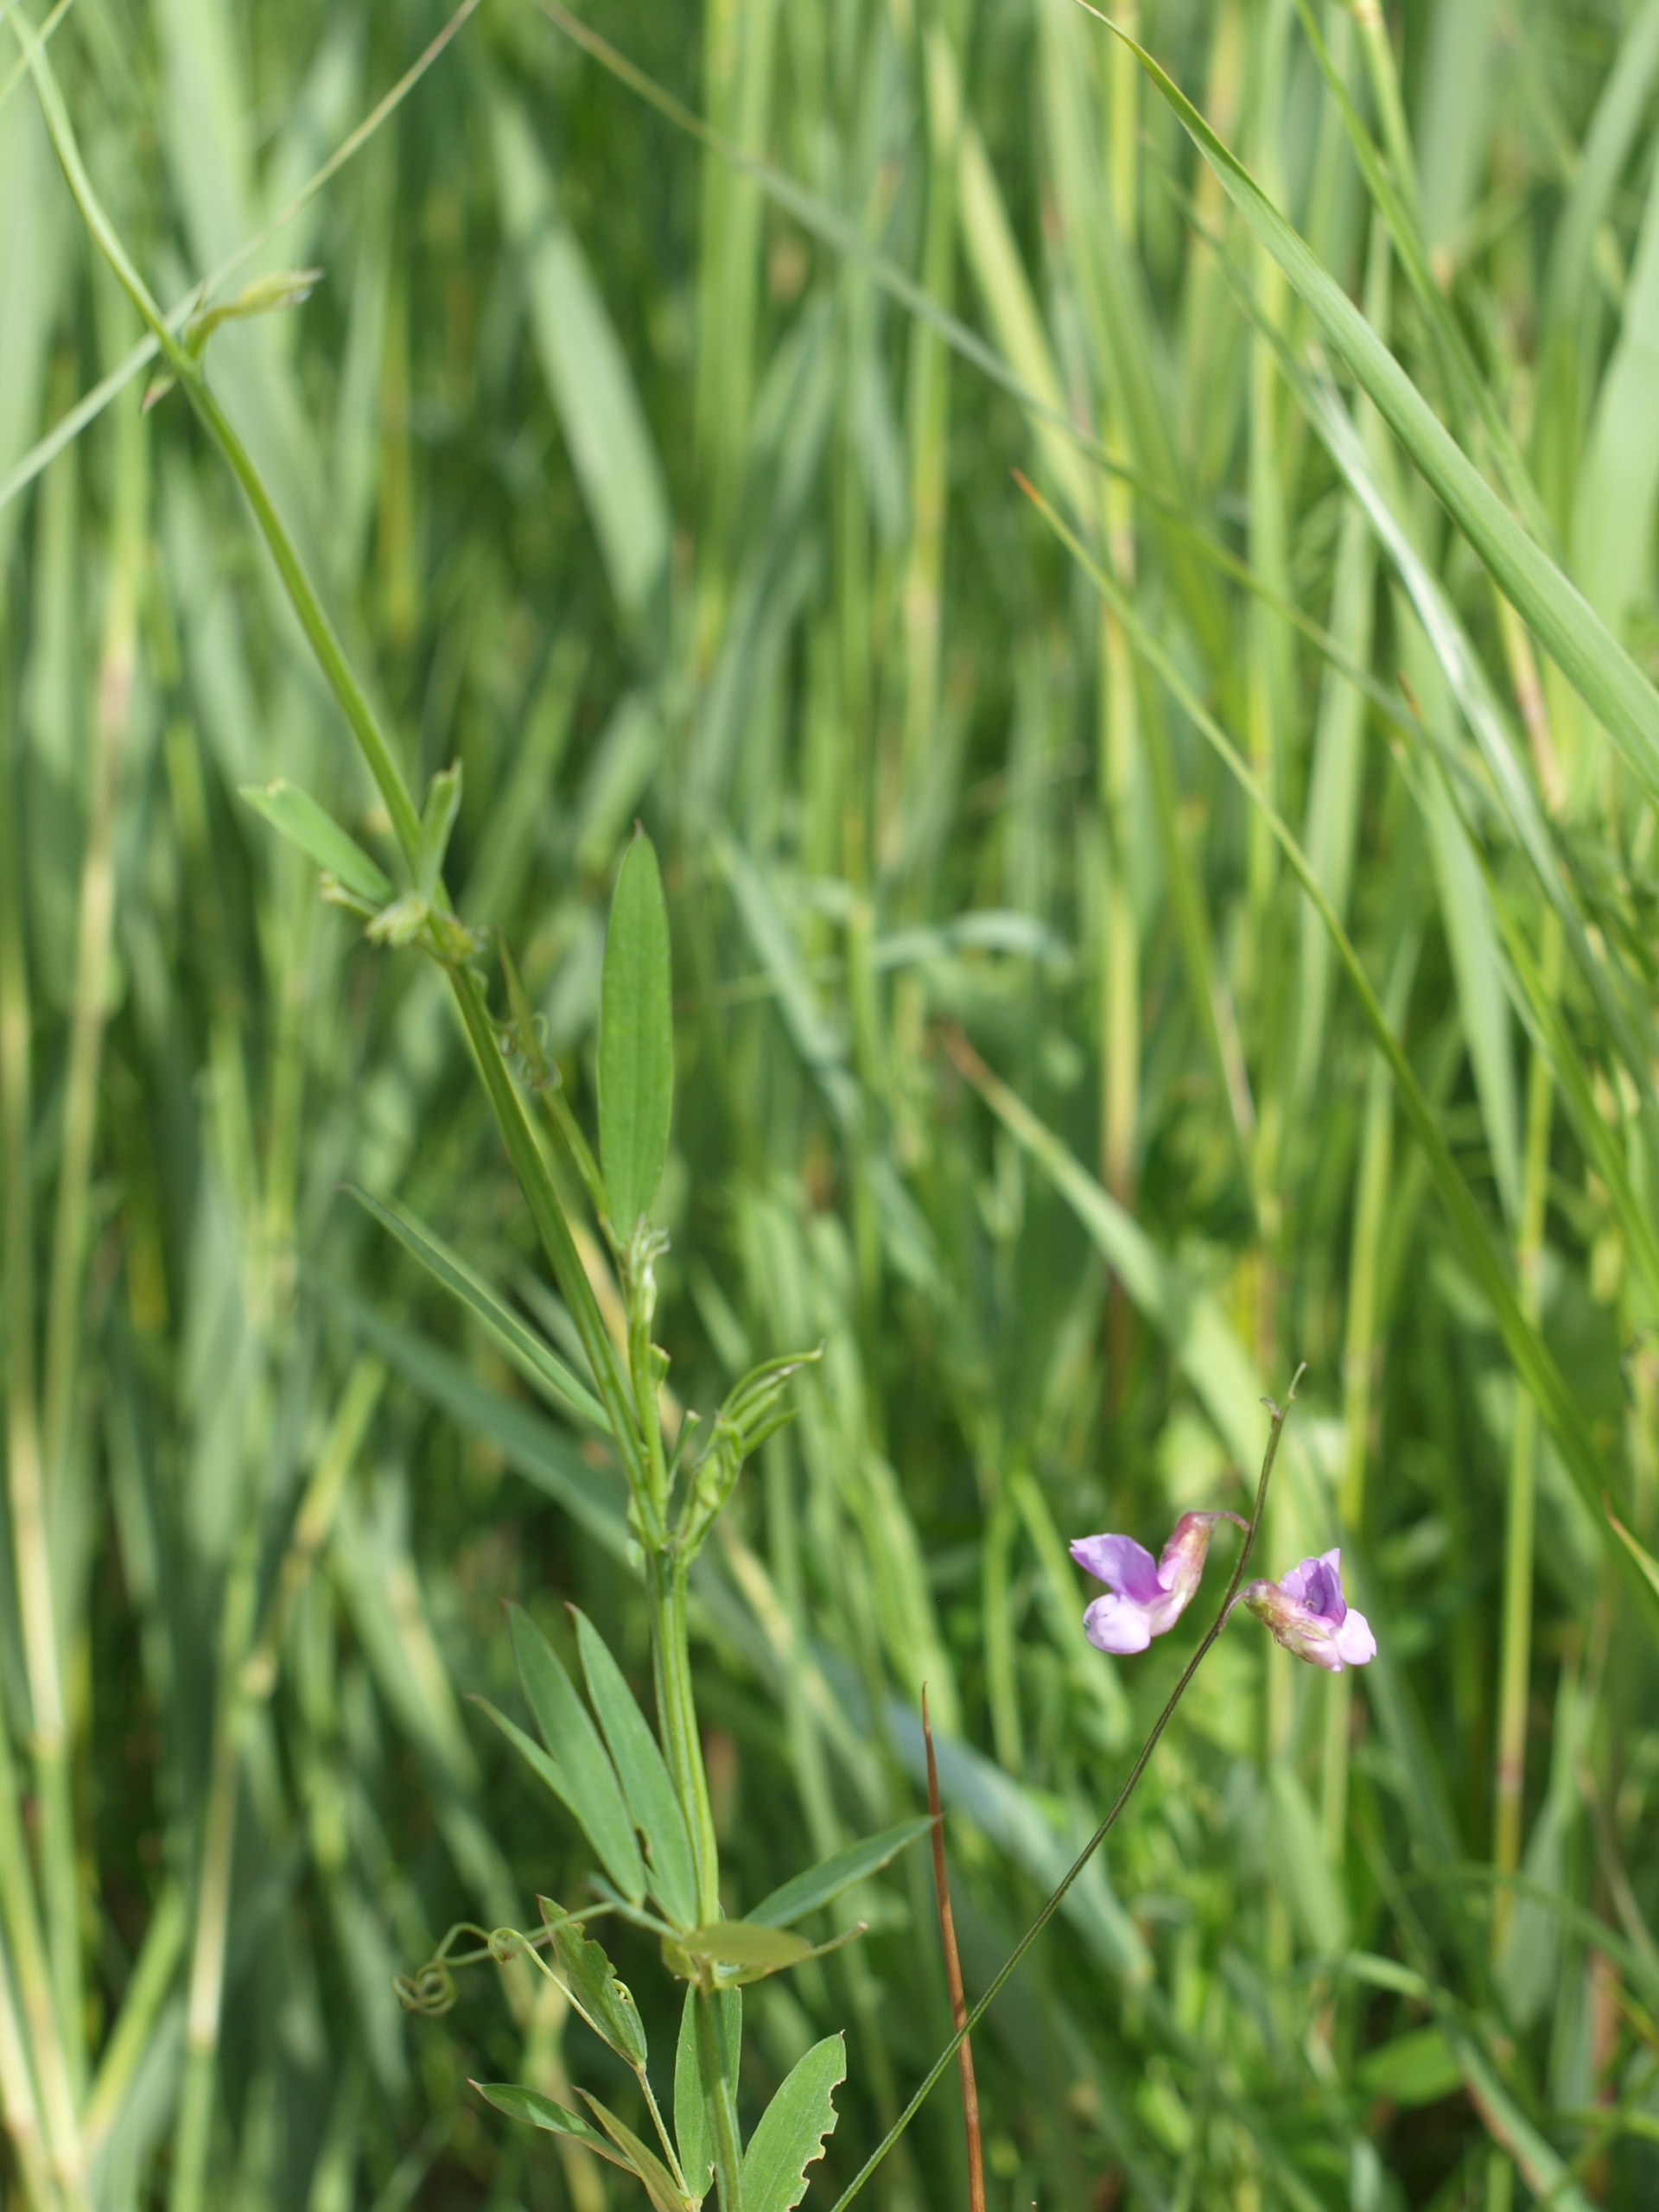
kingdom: Plantae
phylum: Tracheophyta
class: Magnoliopsida
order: Fabales
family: Fabaceae
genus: Lathyrus
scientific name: Lathyrus palustris
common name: Kær-fladbælg
